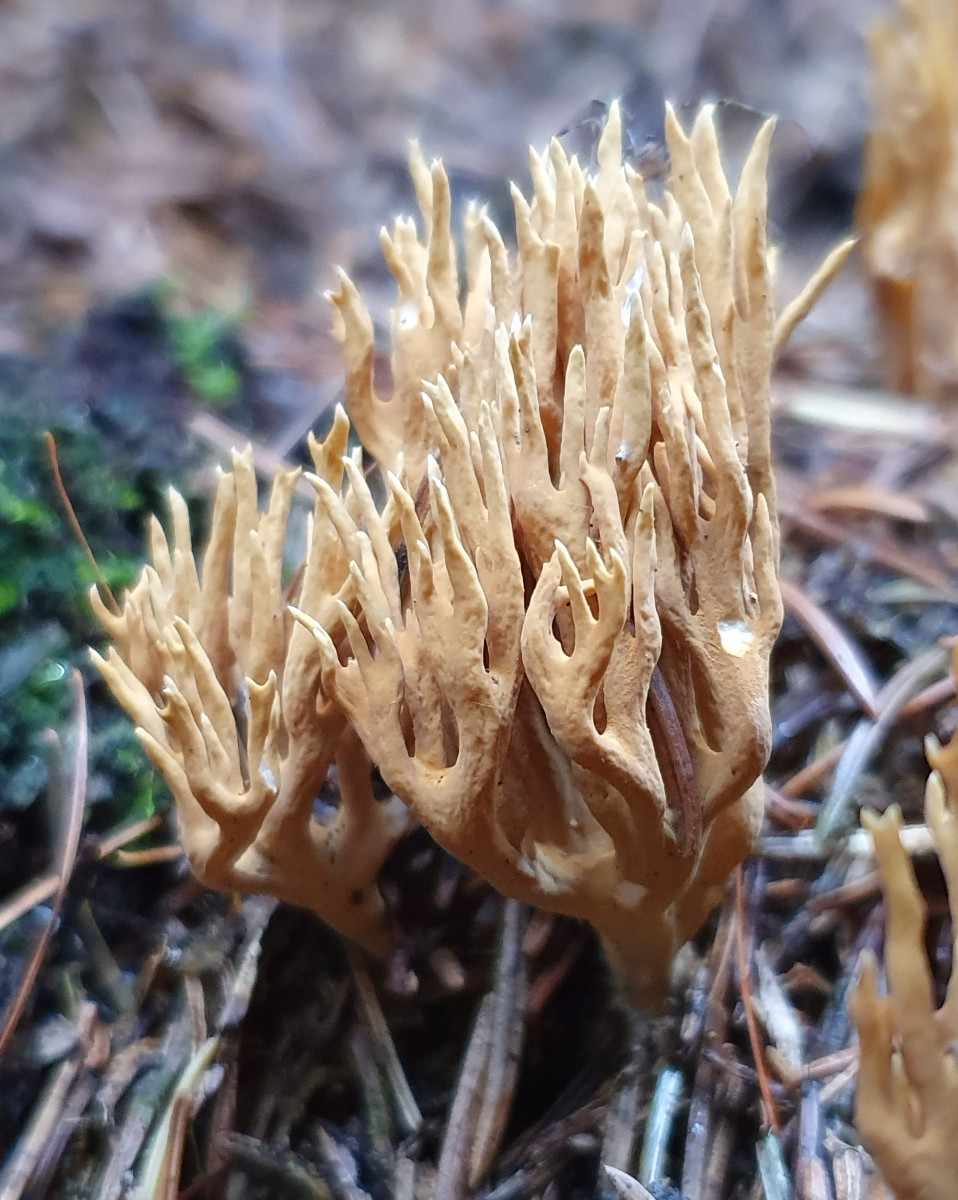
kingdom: Fungi
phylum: Basidiomycota
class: Agaricomycetes
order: Gomphales
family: Gomphaceae
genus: Phaeoclavulina
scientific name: Phaeoclavulina eumorpha
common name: gran-koralsvamp
